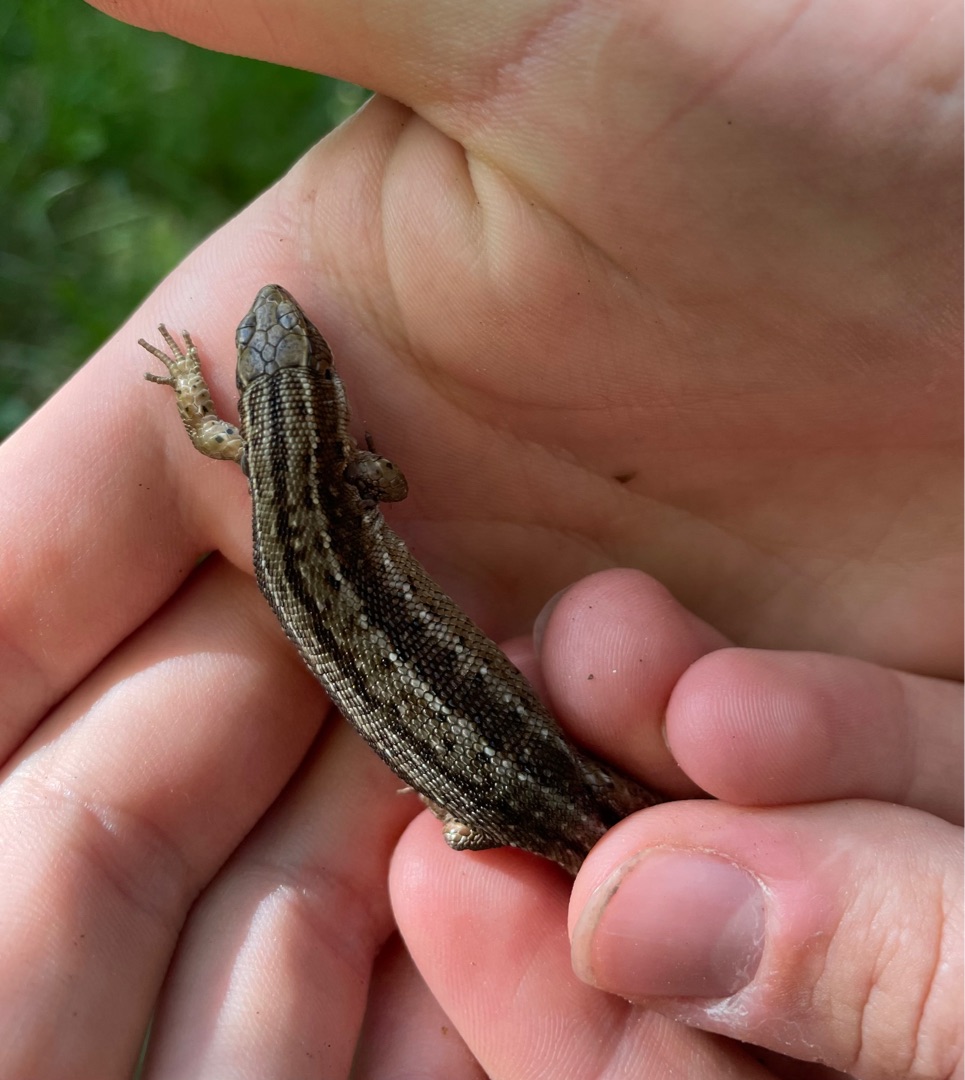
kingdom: Animalia
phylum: Chordata
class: Squamata
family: Lacertidae
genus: Zootoca
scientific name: Zootoca vivipara
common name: Skovfirben
